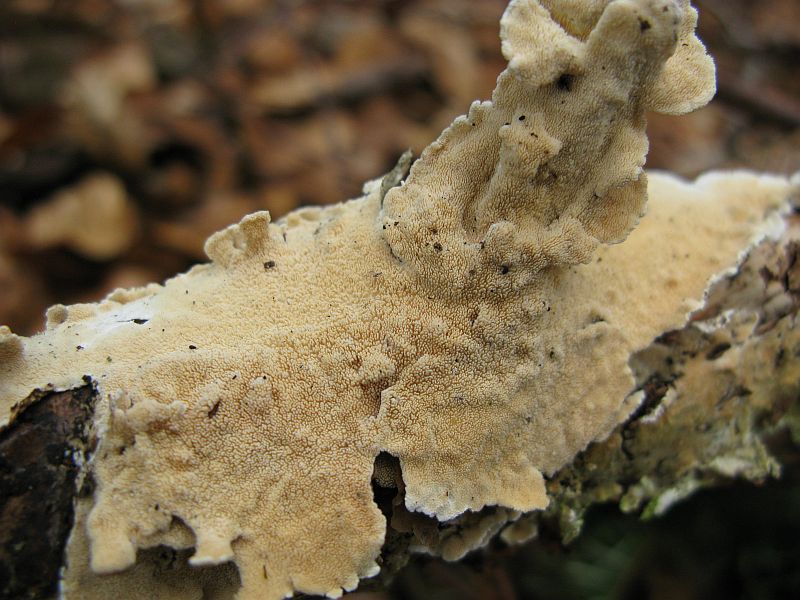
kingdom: Fungi
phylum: Basidiomycota
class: Agaricomycetes
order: Polyporales
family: Steccherinaceae
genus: Steccherinum
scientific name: Steccherinum ochraceum
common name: almindelig skønpig
